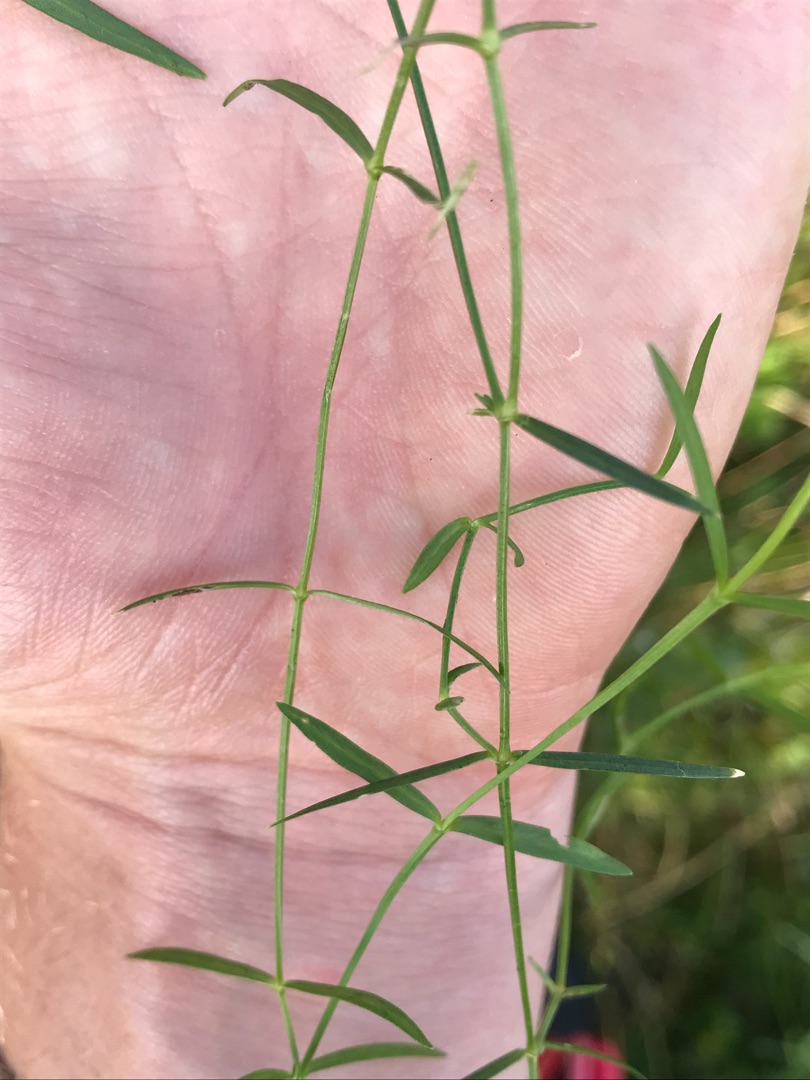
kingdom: Plantae
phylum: Tracheophyta
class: Magnoliopsida
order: Caryophyllales
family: Caryophyllaceae
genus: Stellaria
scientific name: Stellaria palustris
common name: Kær-fladstjerne
